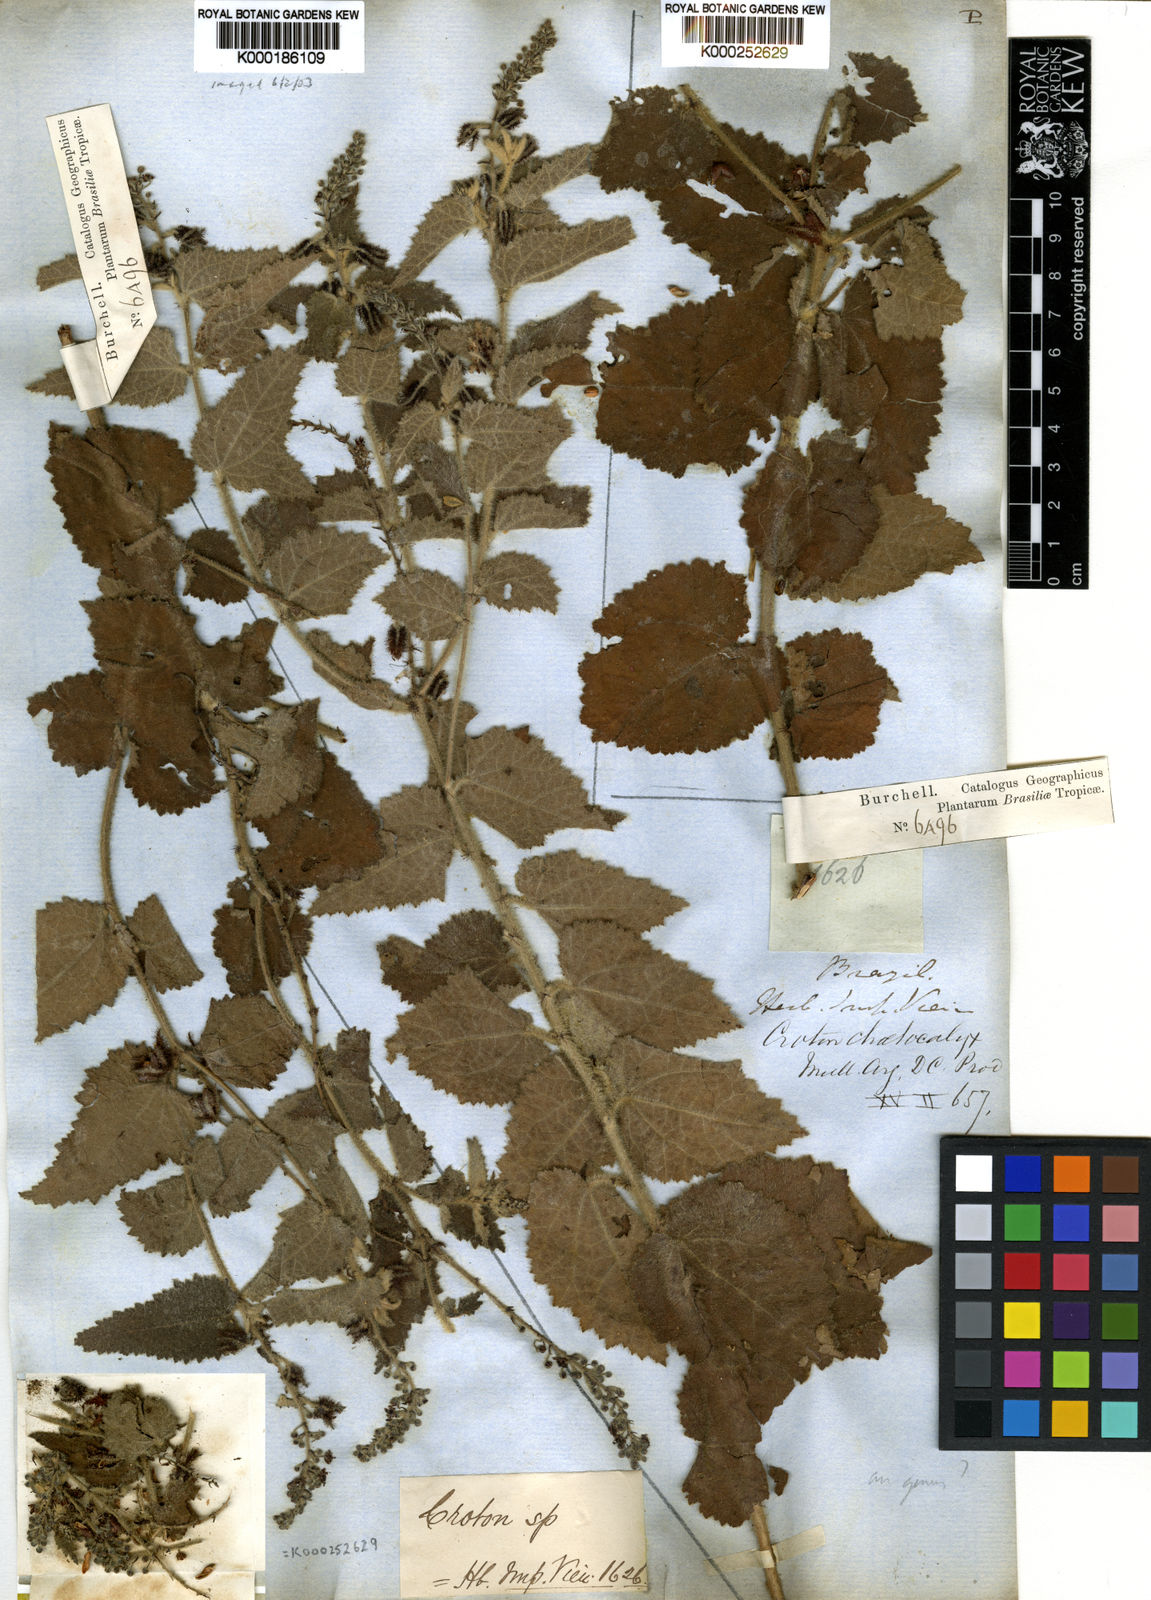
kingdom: Plantae
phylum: Tracheophyta
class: Magnoliopsida
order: Malpighiales
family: Euphorbiaceae
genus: Croton
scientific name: Croton
